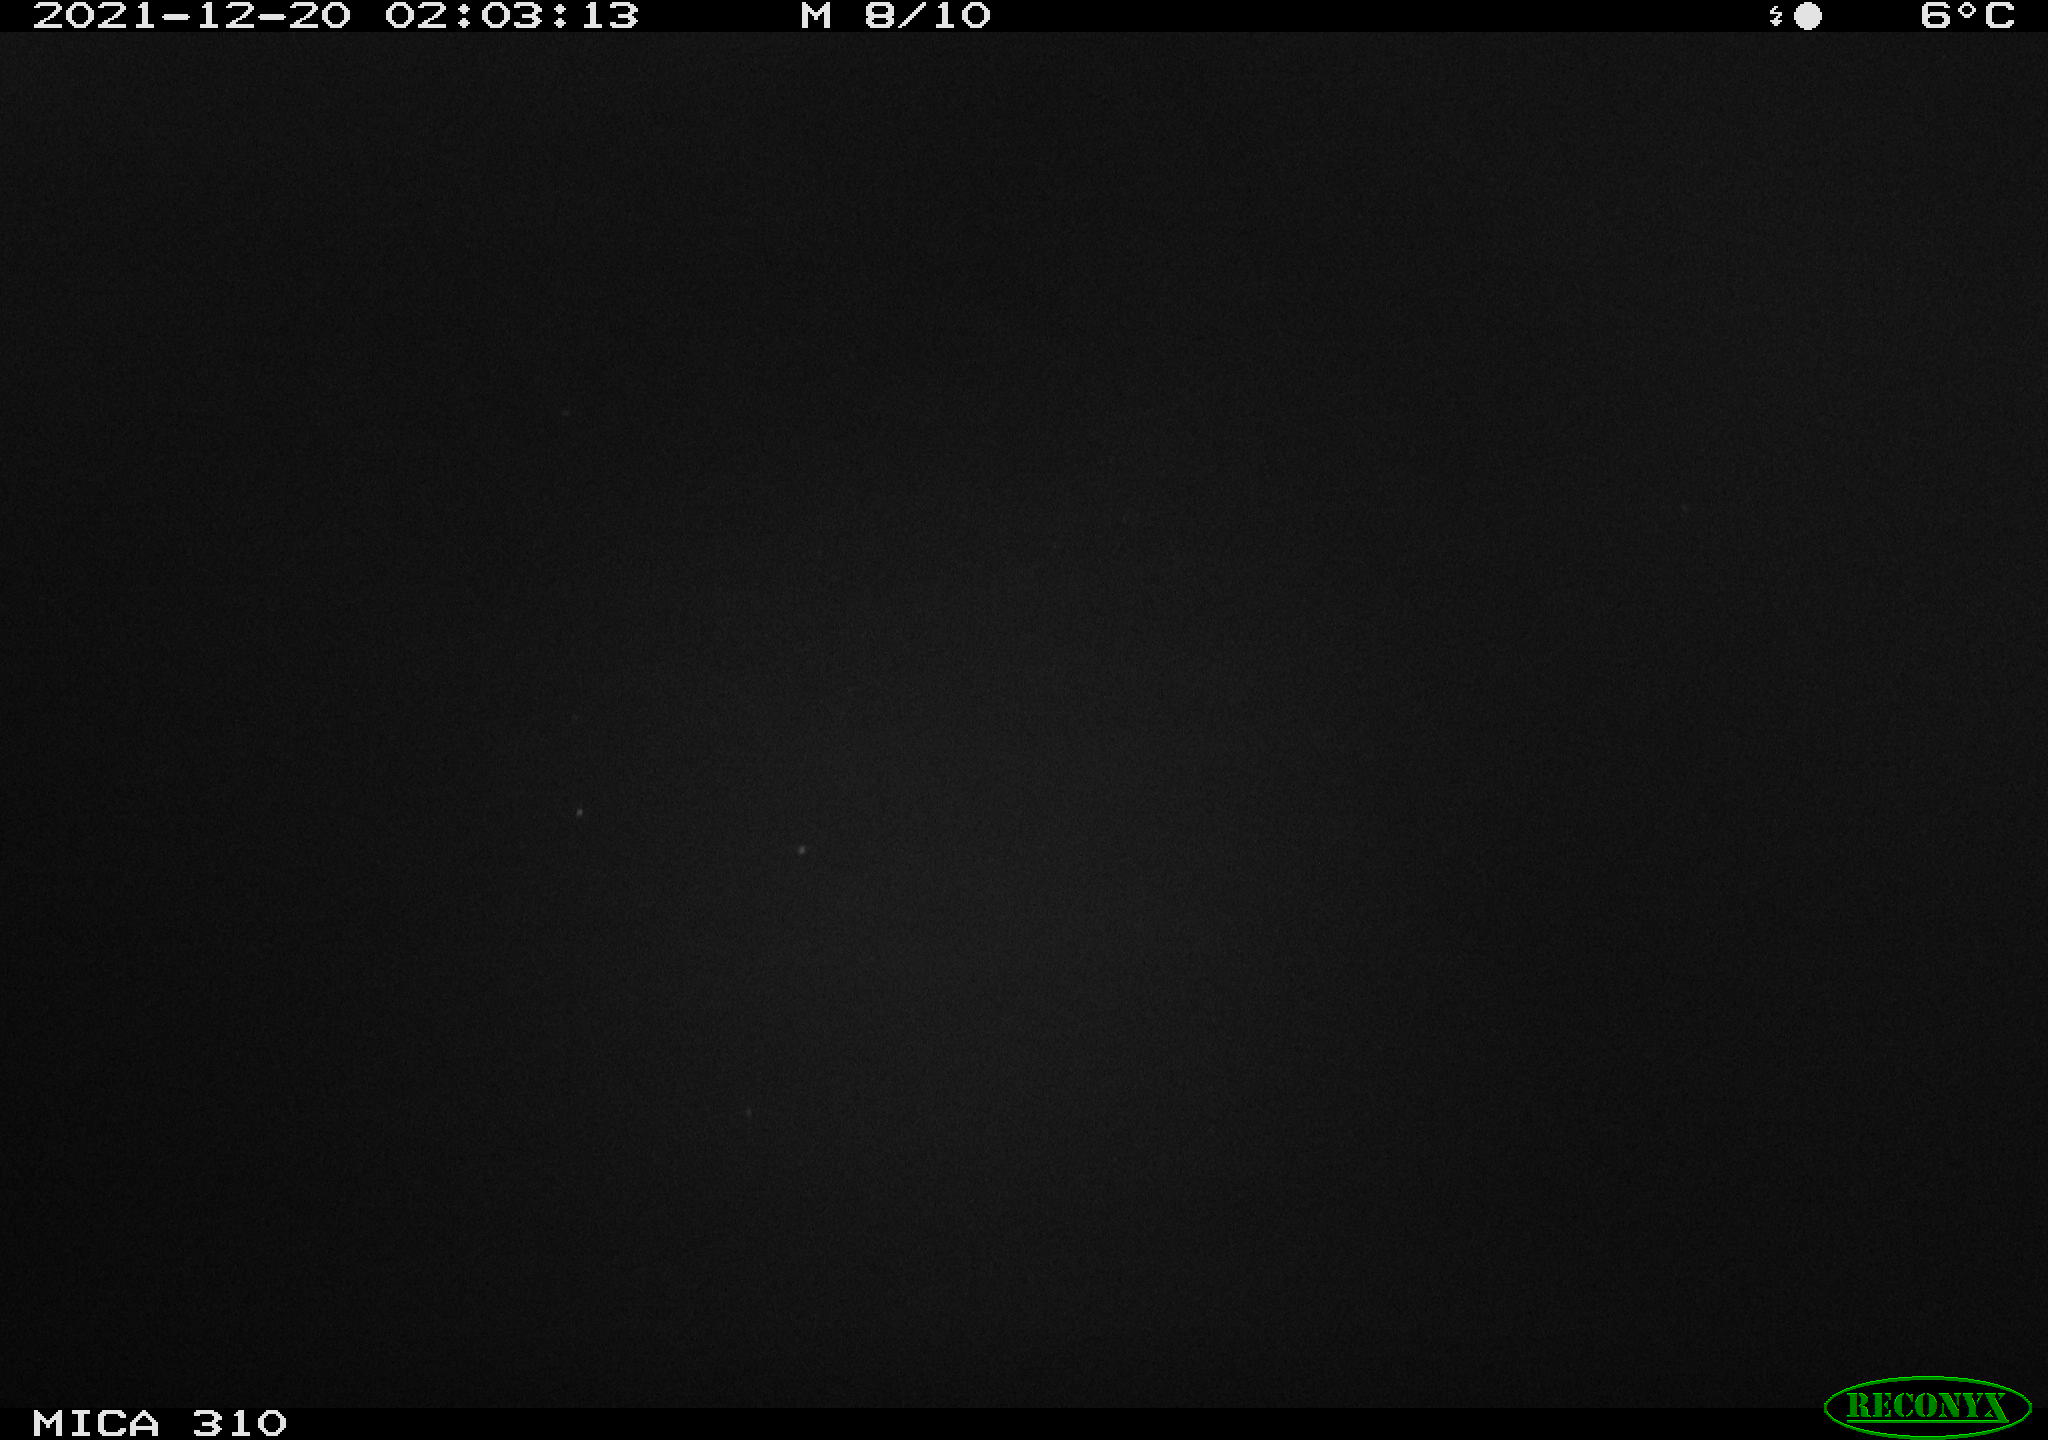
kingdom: Animalia
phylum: Chordata
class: Aves
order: Anseriformes
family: Anatidae
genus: Anas
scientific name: Anas platyrhynchos
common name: Mallard
